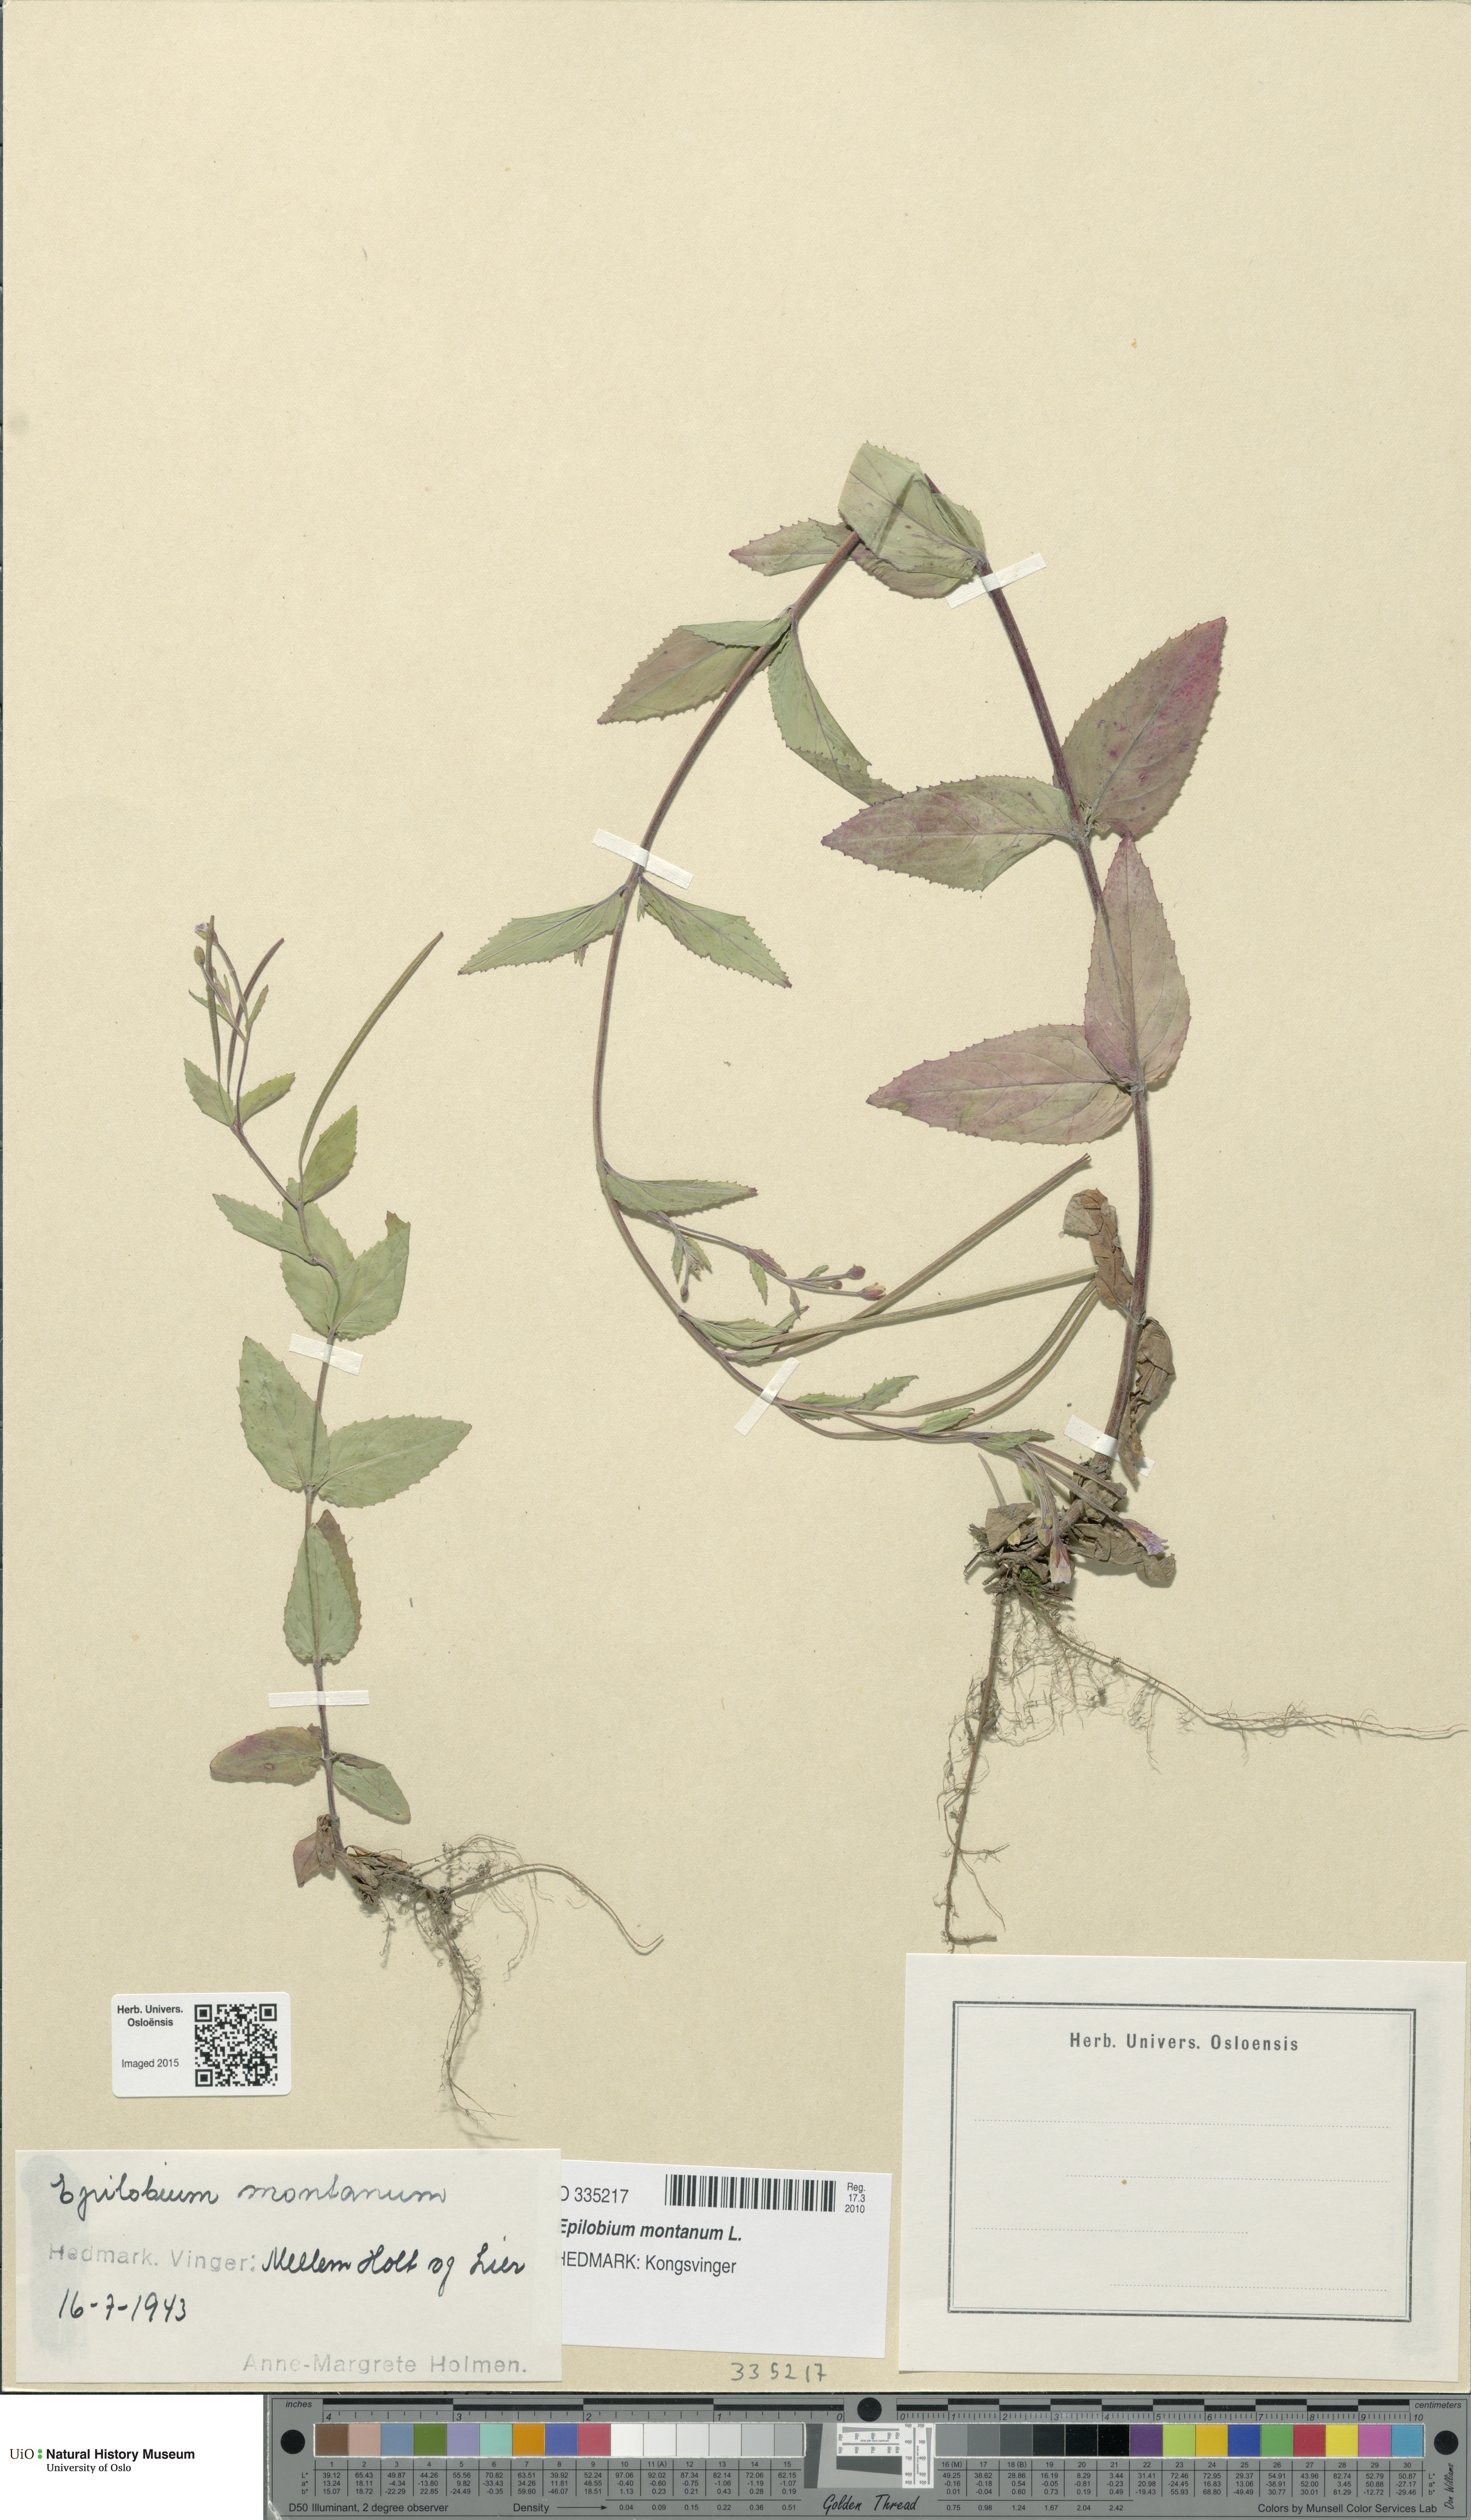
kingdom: Plantae
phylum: Tracheophyta
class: Magnoliopsida
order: Myrtales
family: Onagraceae
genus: Epilobium
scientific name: Epilobium montanum
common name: Broad-leaved willowherb
